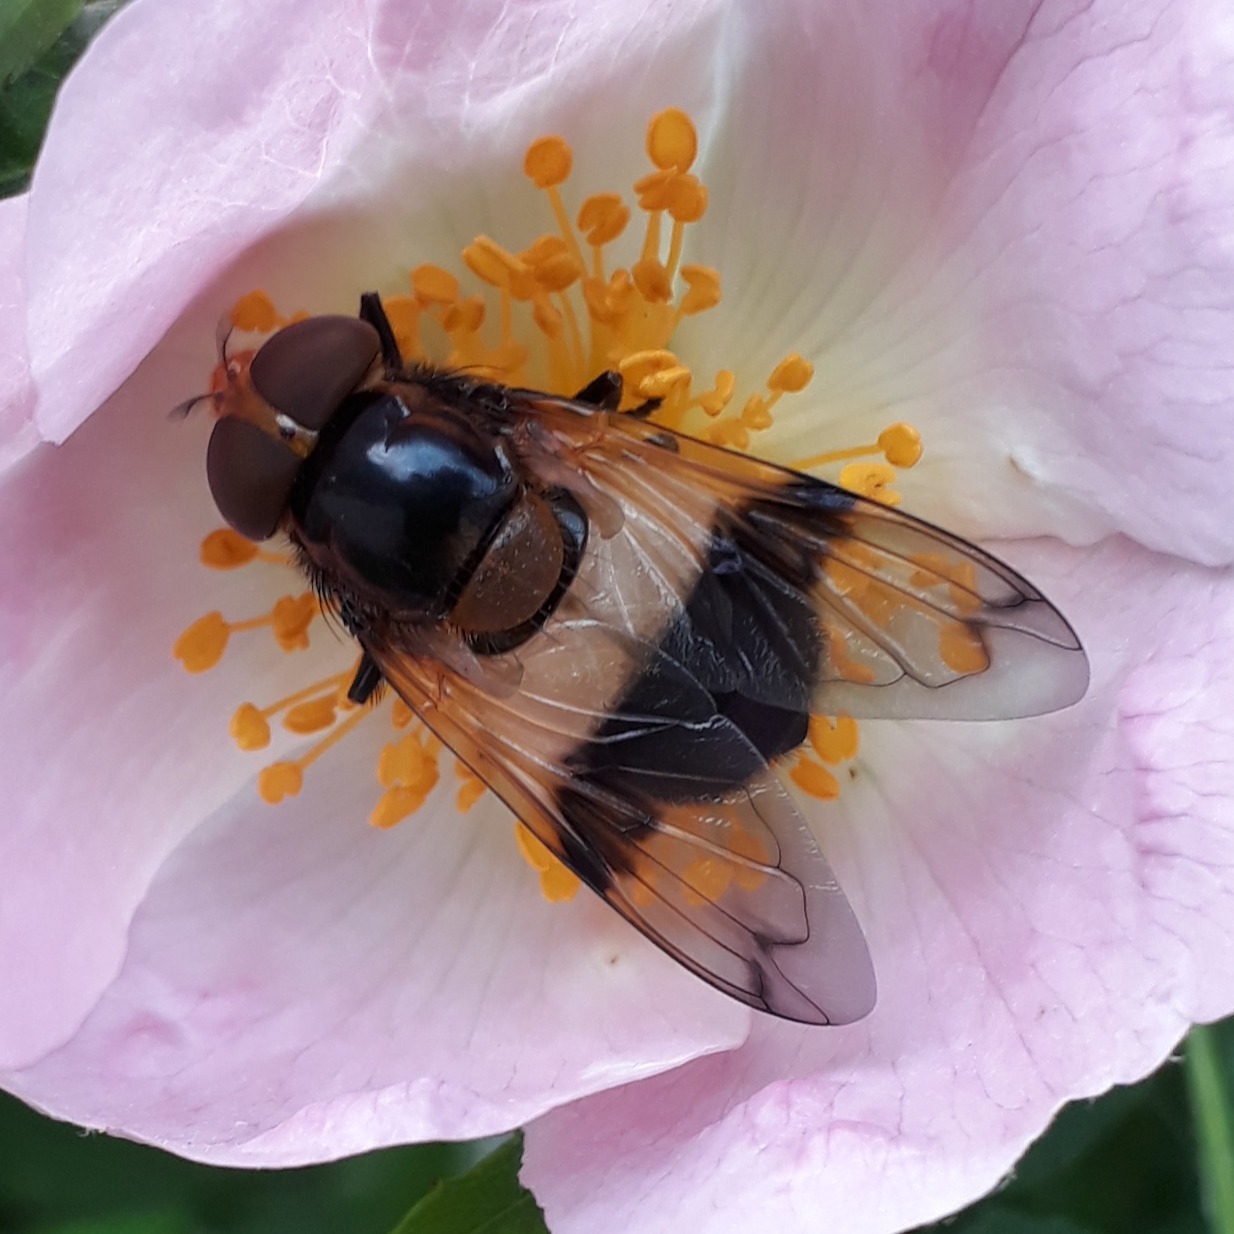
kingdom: Animalia
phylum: Arthropoda
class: Insecta
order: Diptera
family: Syrphidae
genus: Volucella
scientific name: Volucella pellucens
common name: Hvidbåndet humlesvirreflue
